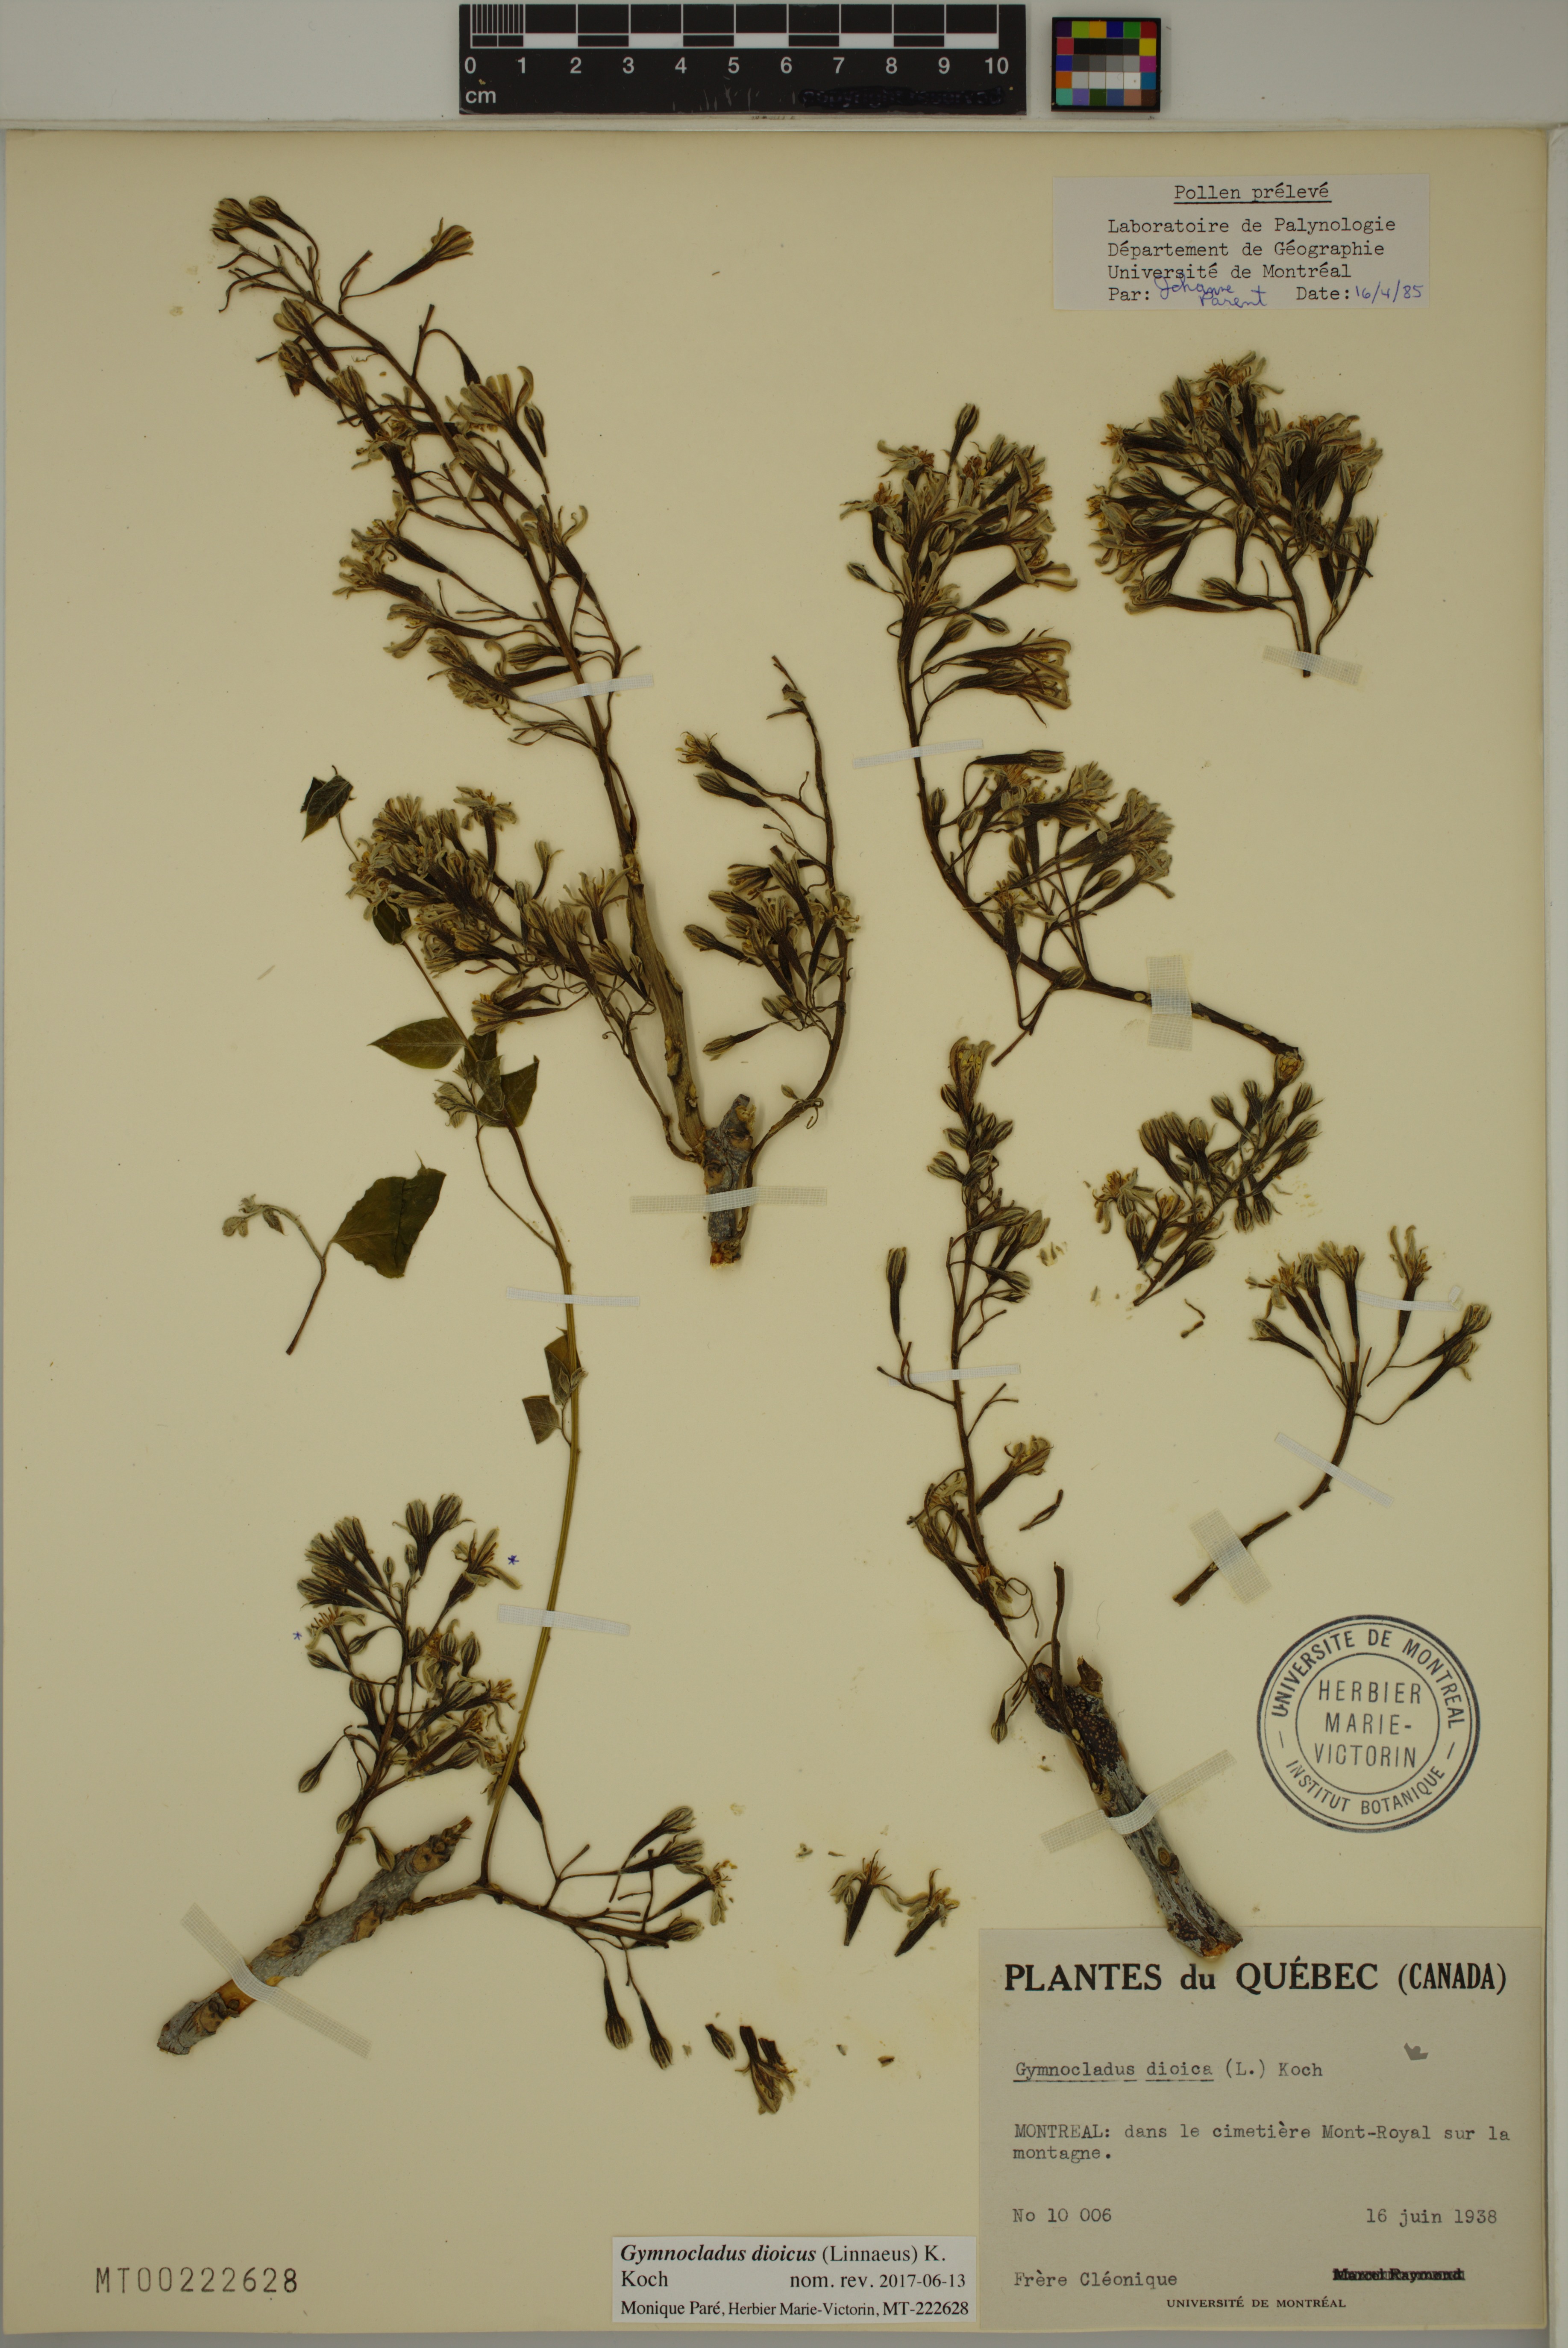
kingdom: Plantae
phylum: Tracheophyta
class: Magnoliopsida
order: Fabales
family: Fabaceae
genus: Gymnocladus
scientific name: Gymnocladus dioicus
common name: Kentucky coffee-tree
